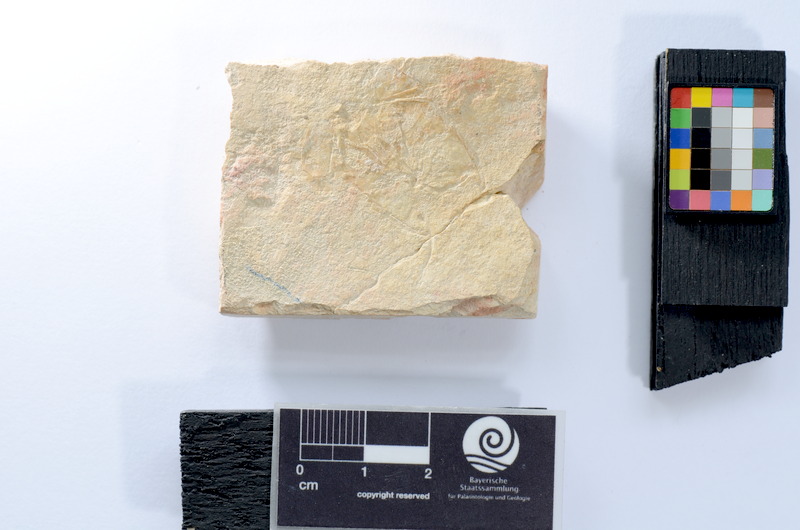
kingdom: Animalia
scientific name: Animalia
